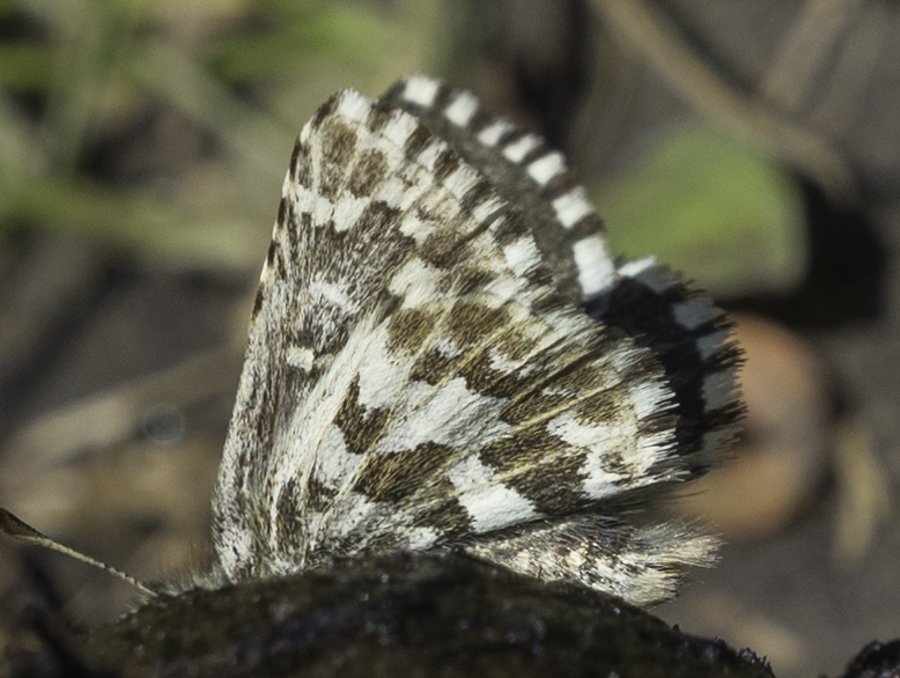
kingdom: Animalia
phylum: Arthropoda
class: Insecta
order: Lepidoptera
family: Hesperiidae
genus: Pyrgus
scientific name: Pyrgus centaureae
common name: Grizzled Skipper
